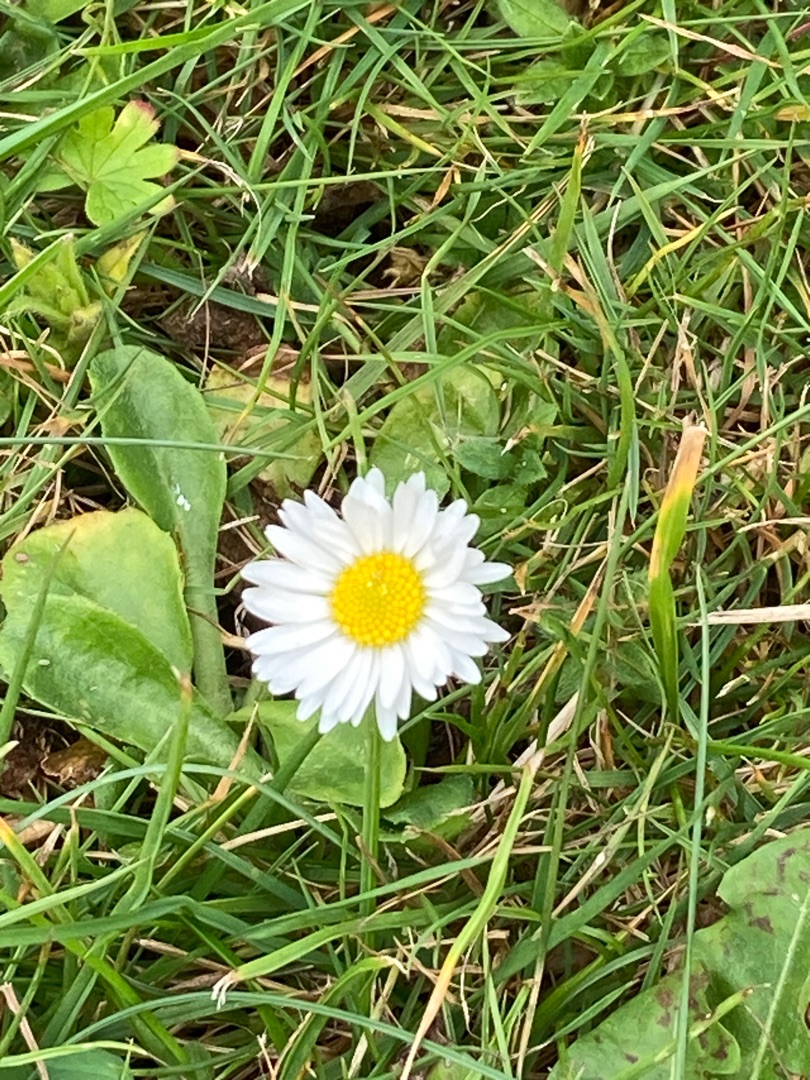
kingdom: Plantae
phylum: Tracheophyta
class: Magnoliopsida
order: Asterales
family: Asteraceae
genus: Bellis
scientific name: Bellis perennis
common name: Tusindfryd
